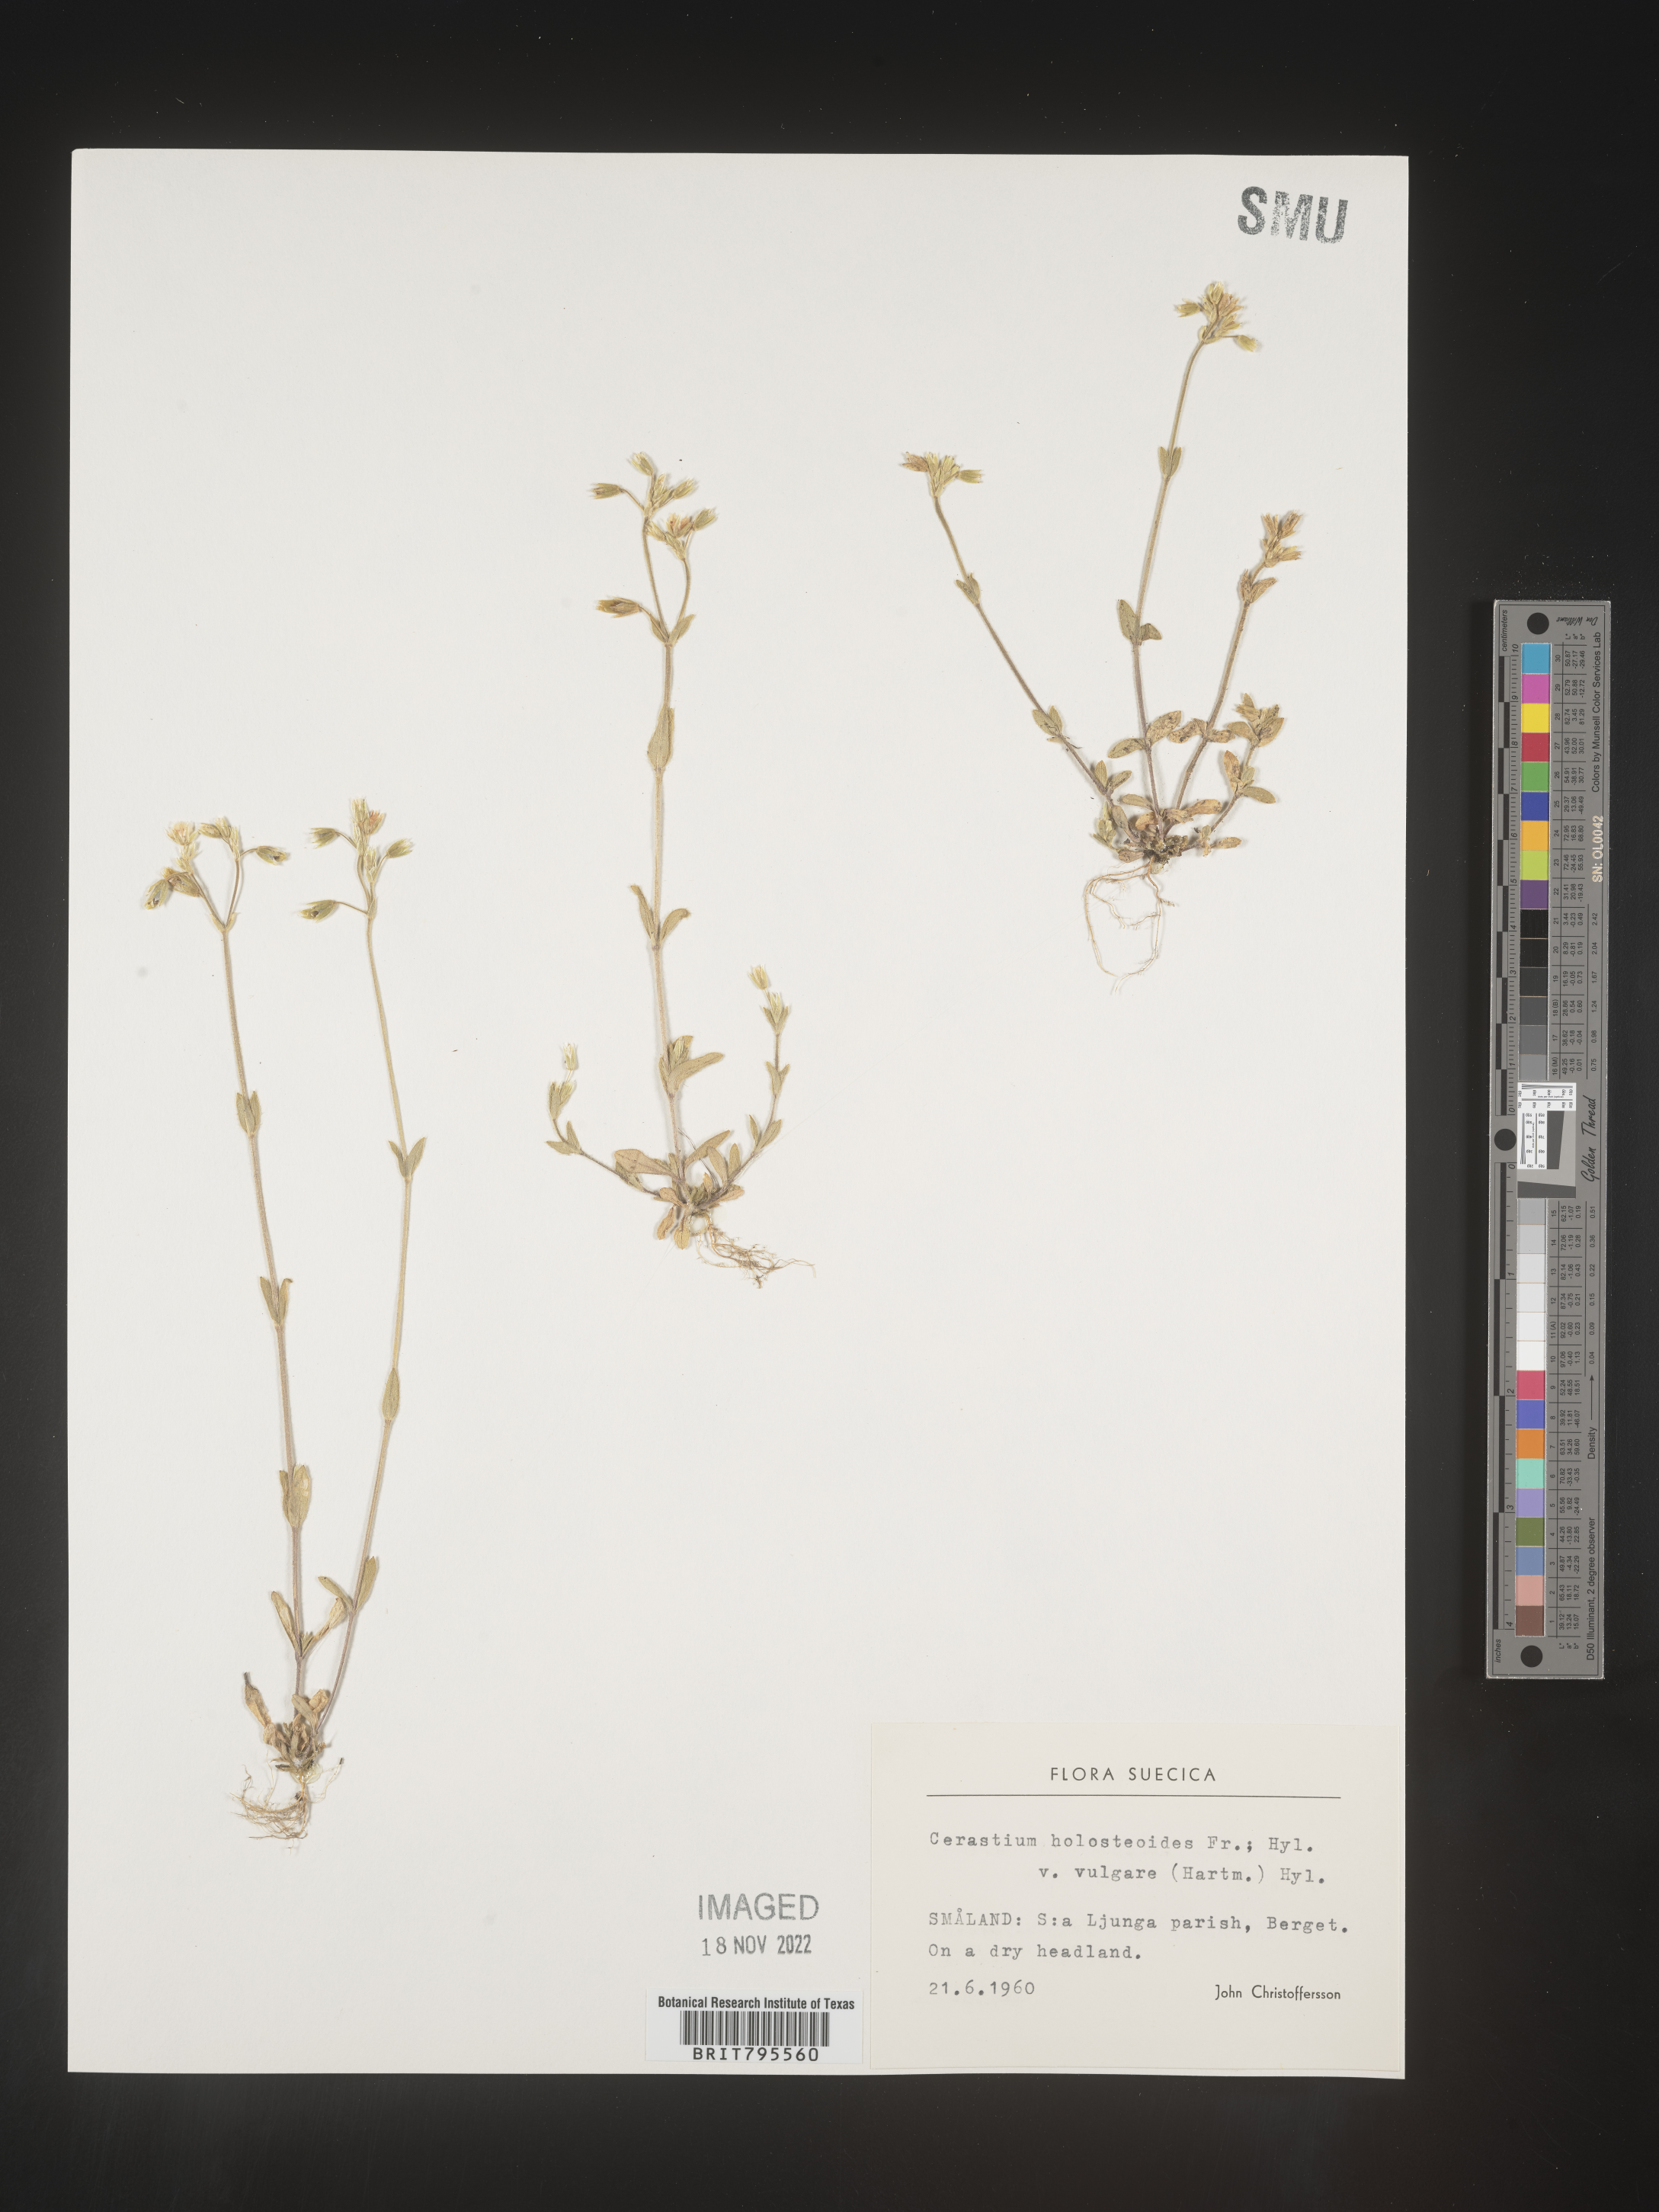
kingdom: Plantae
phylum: Tracheophyta
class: Magnoliopsida
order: Caryophyllales
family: Caryophyllaceae
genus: Cerastium
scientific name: Cerastium
